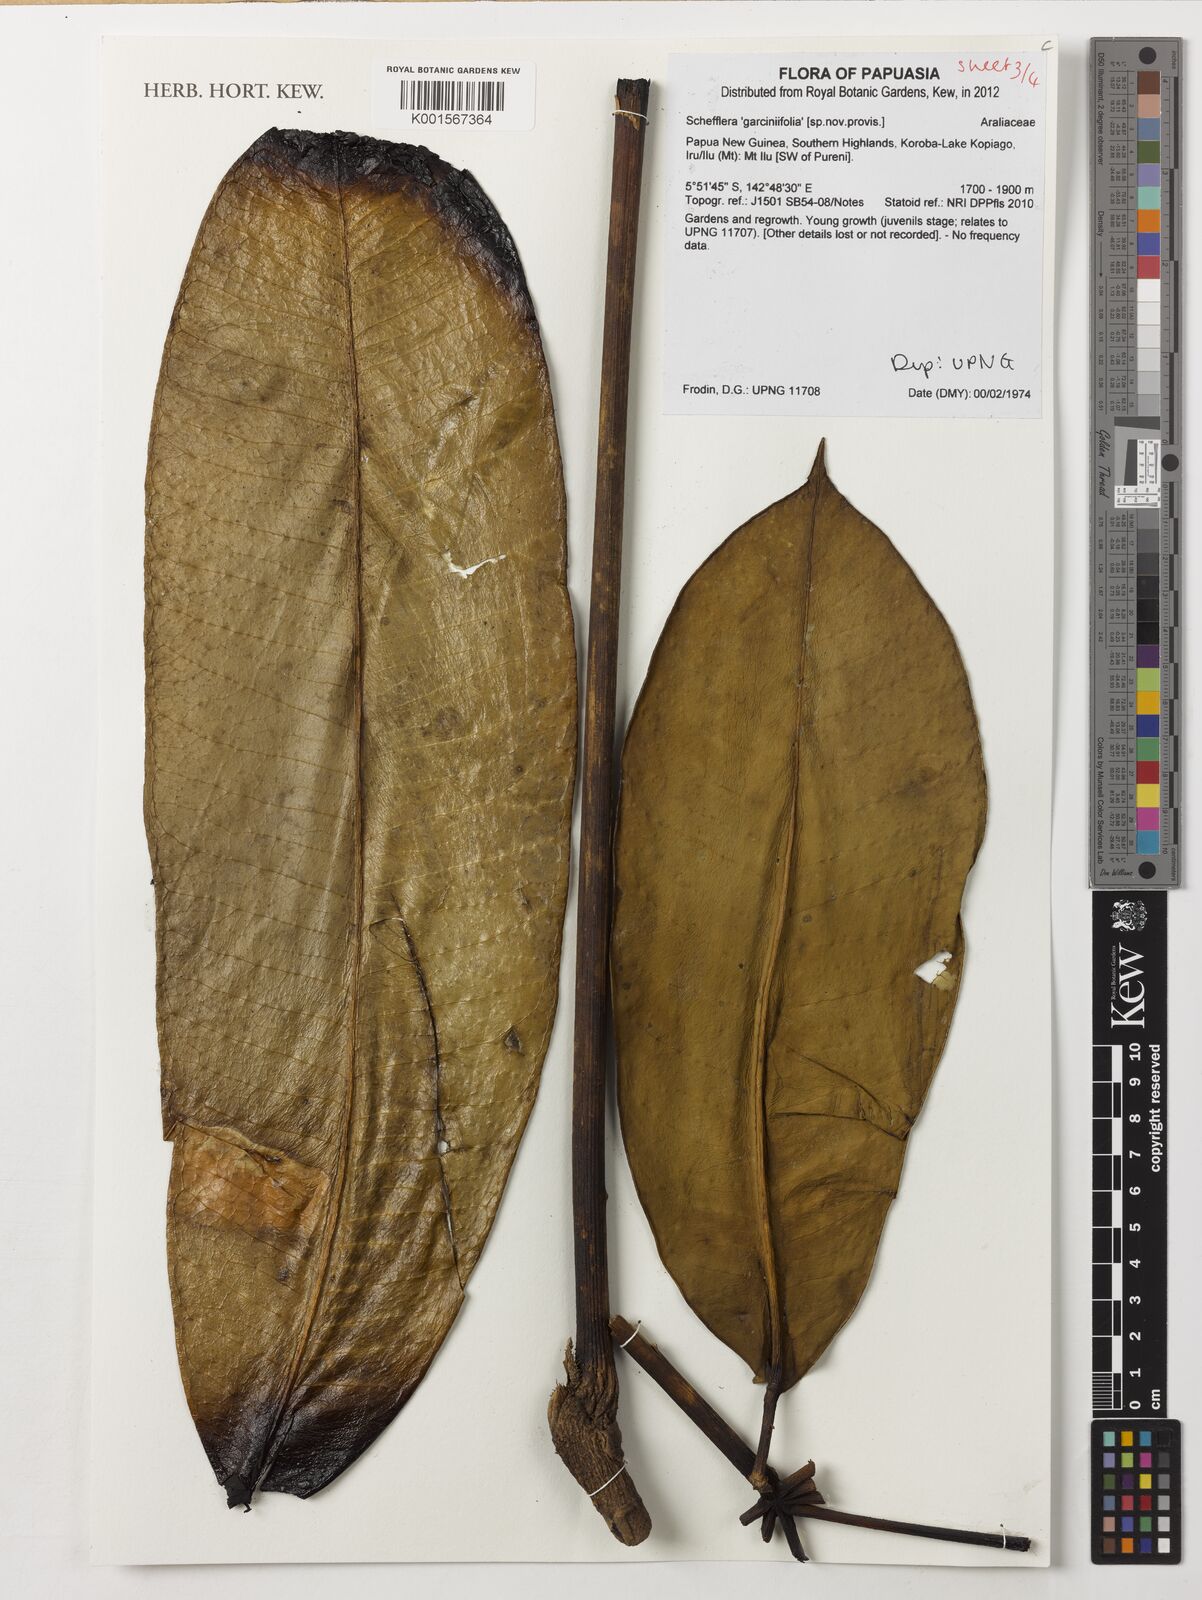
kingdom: Plantae
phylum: Tracheophyta
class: Magnoliopsida
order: Apiales
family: Araliaceae
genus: Schefflera
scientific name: Schefflera
